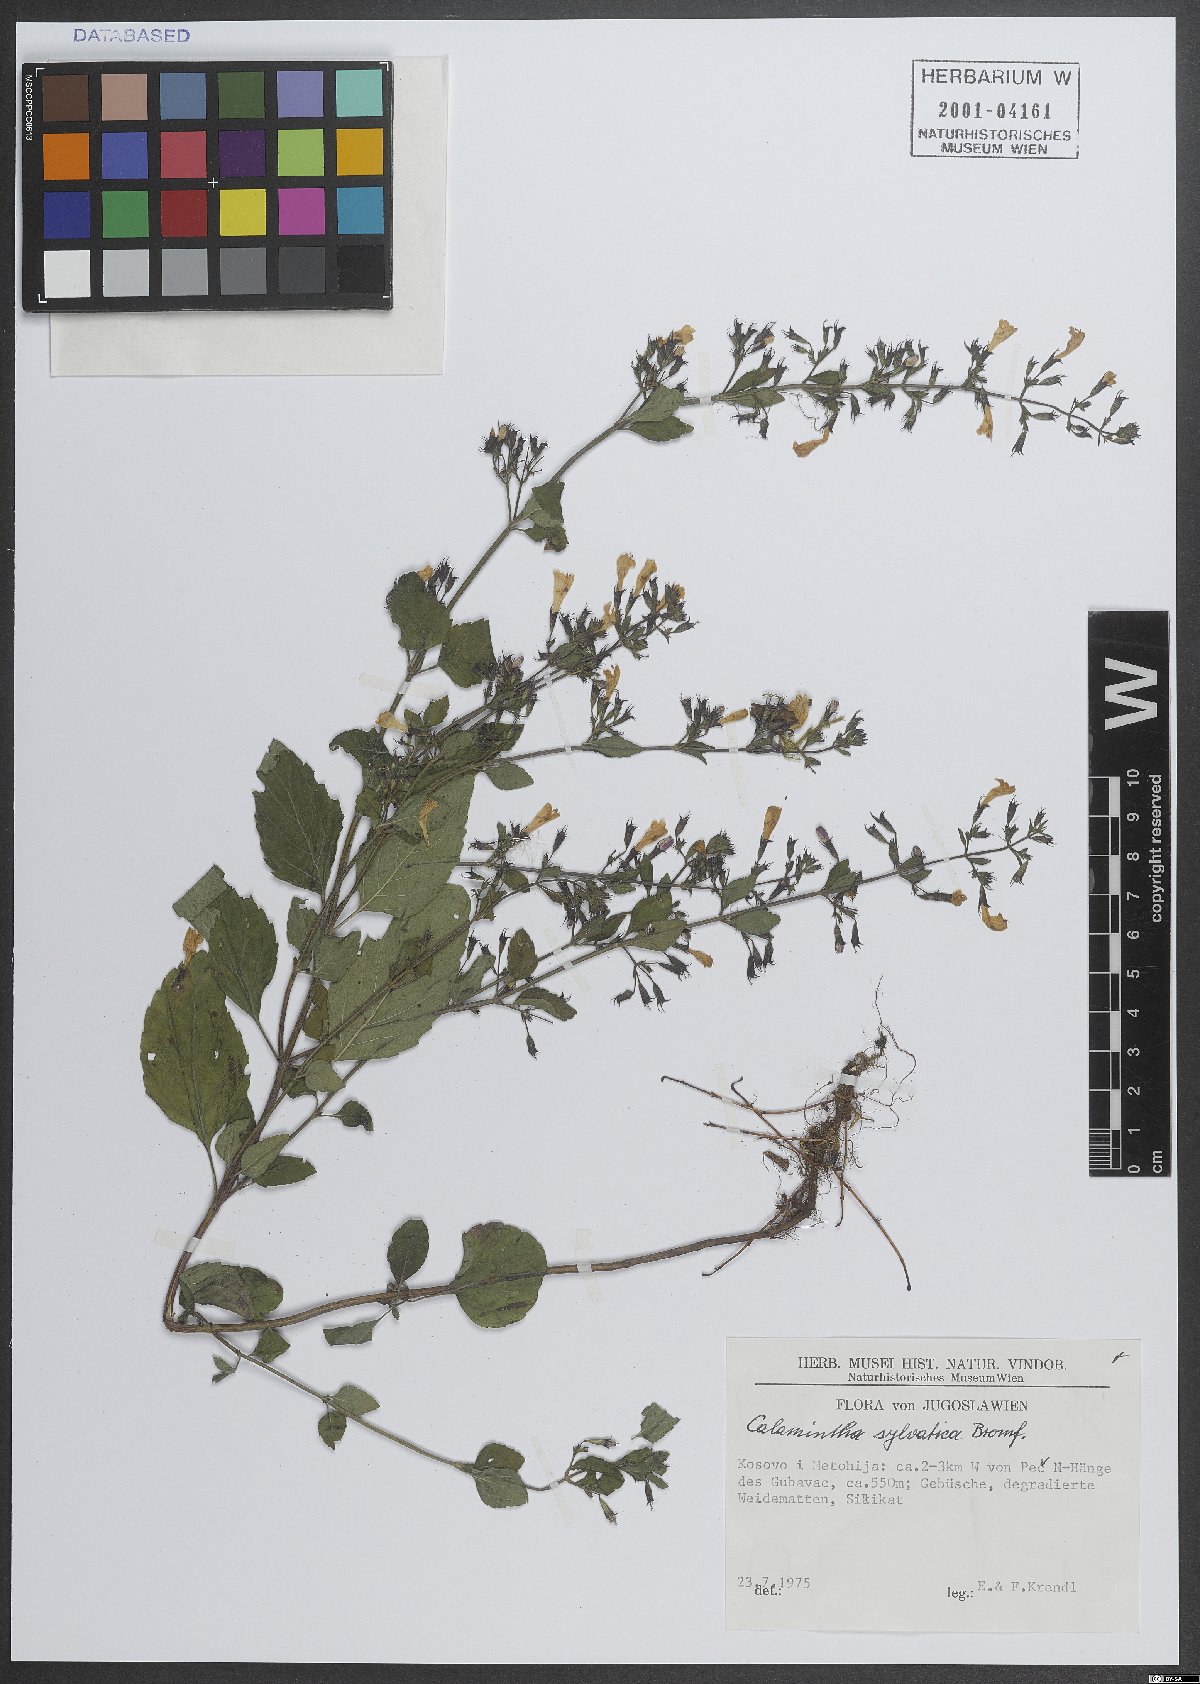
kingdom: Plantae
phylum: Tracheophyta
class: Magnoliopsida
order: Lamiales
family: Lamiaceae
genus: Clinopodium
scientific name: Clinopodium menthifolium
